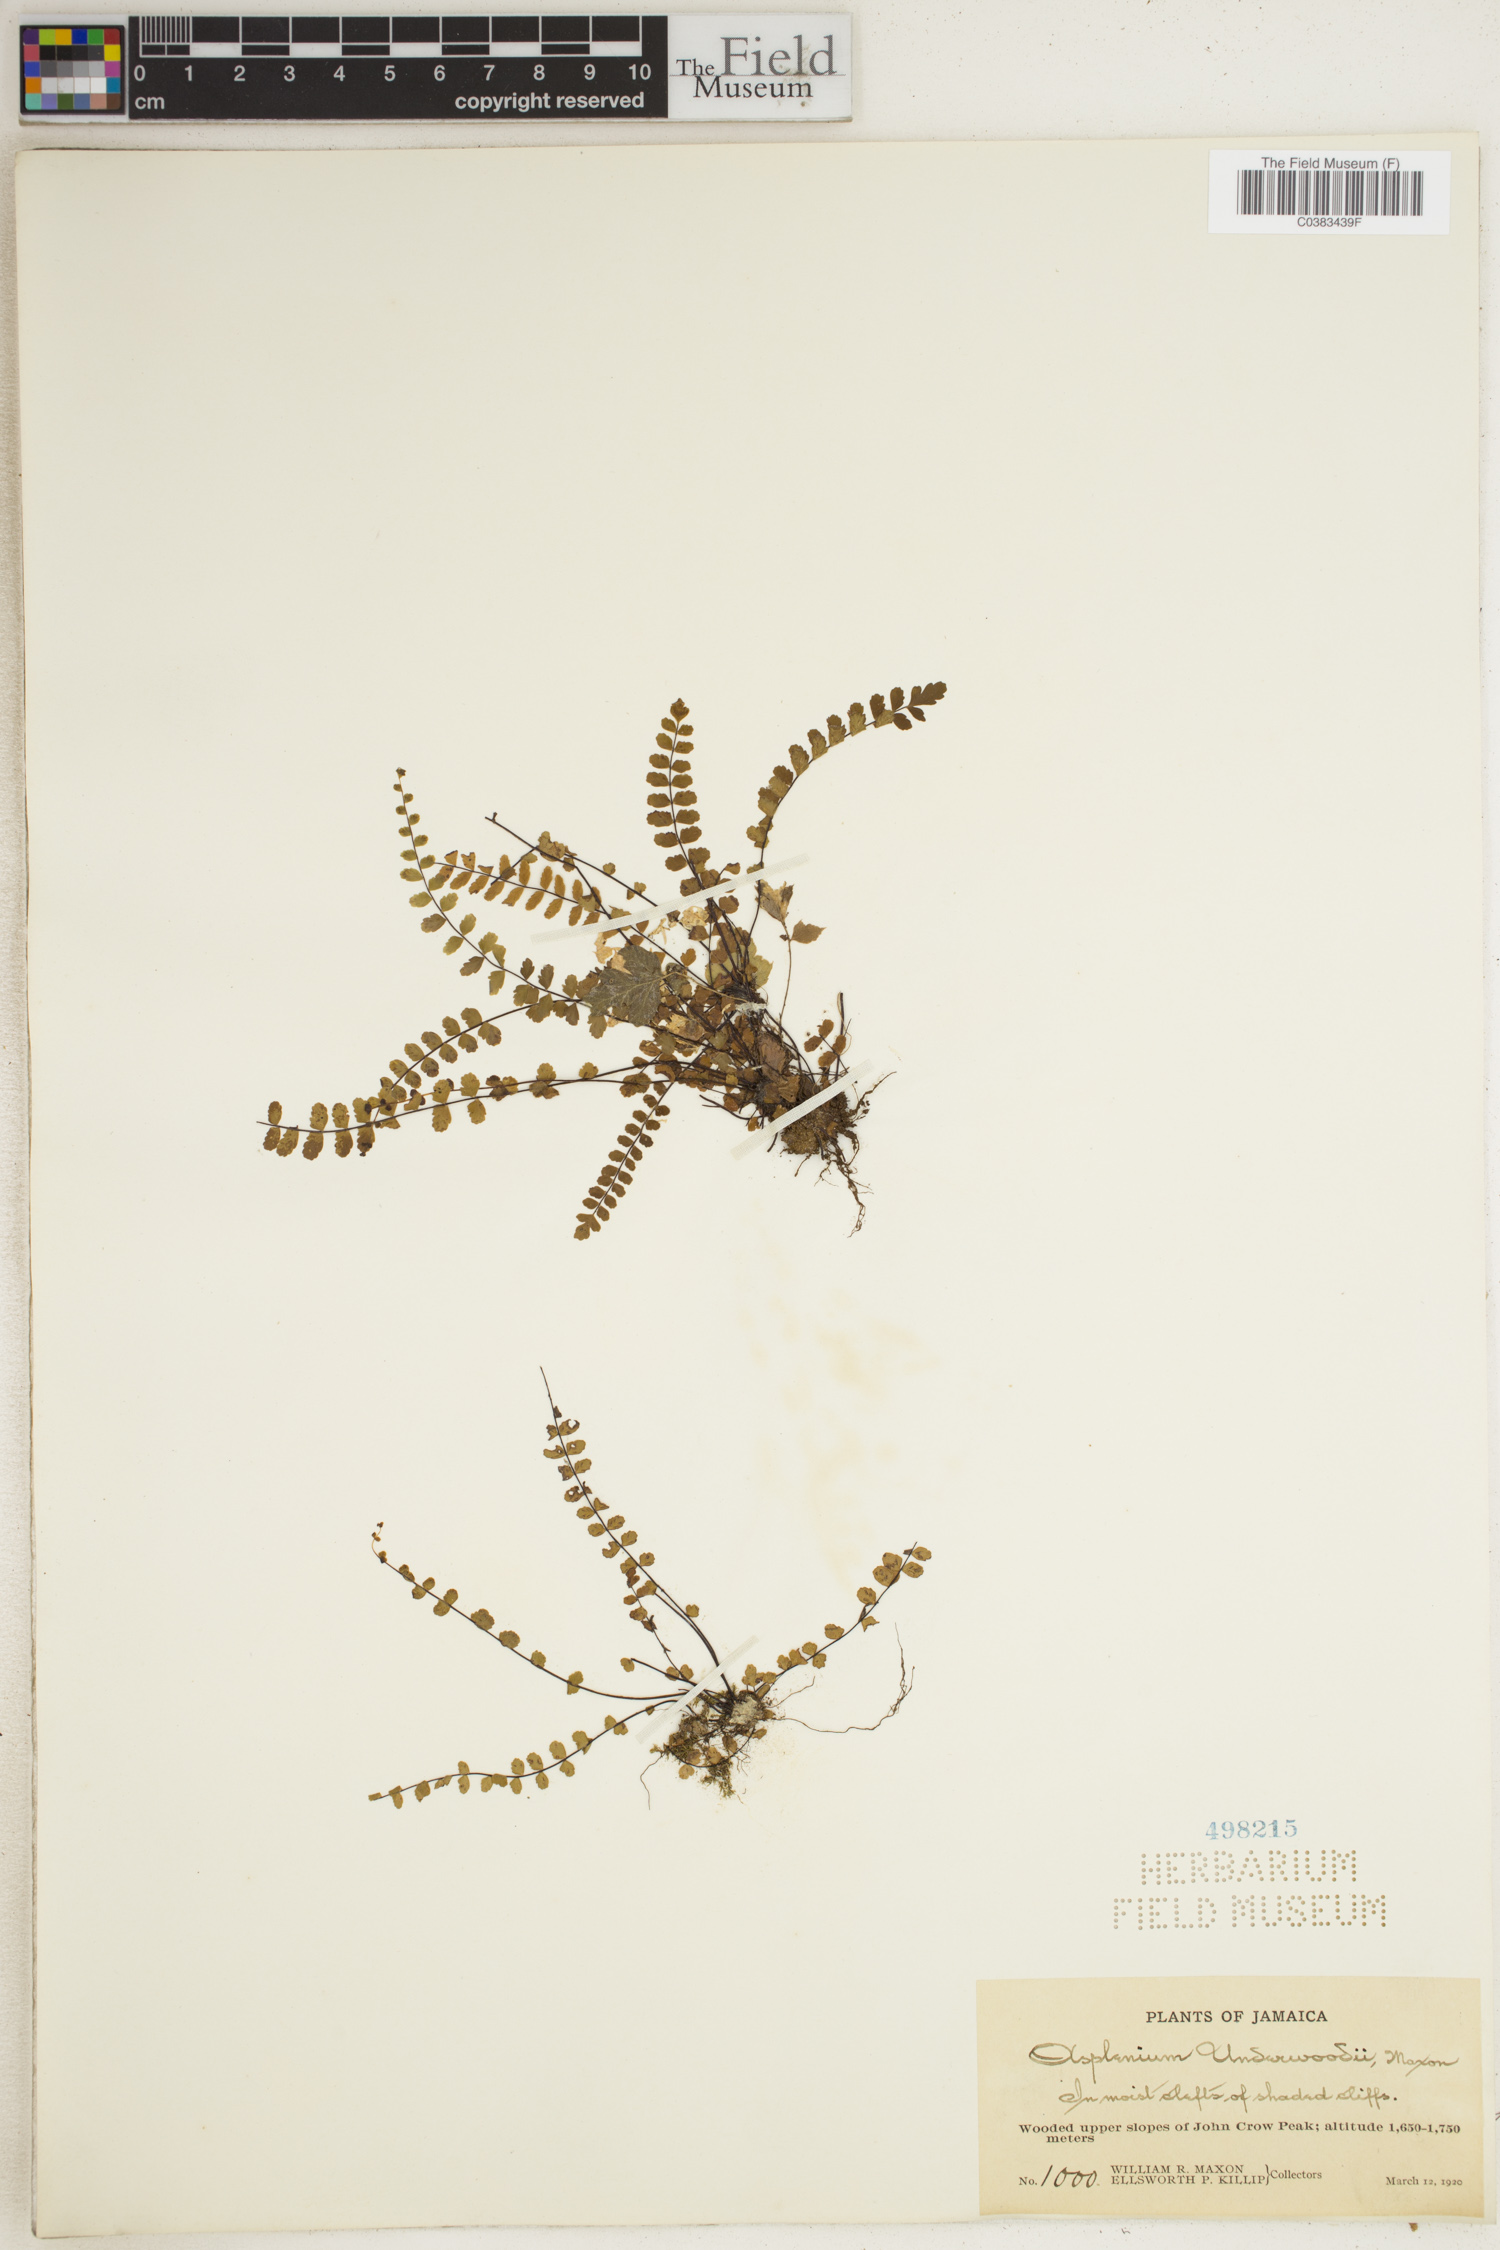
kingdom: Plantae
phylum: Tracheophyta
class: Polypodiopsida
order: Polypodiales
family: Aspleniaceae
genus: Asplenium
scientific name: Asplenium underwoodii
